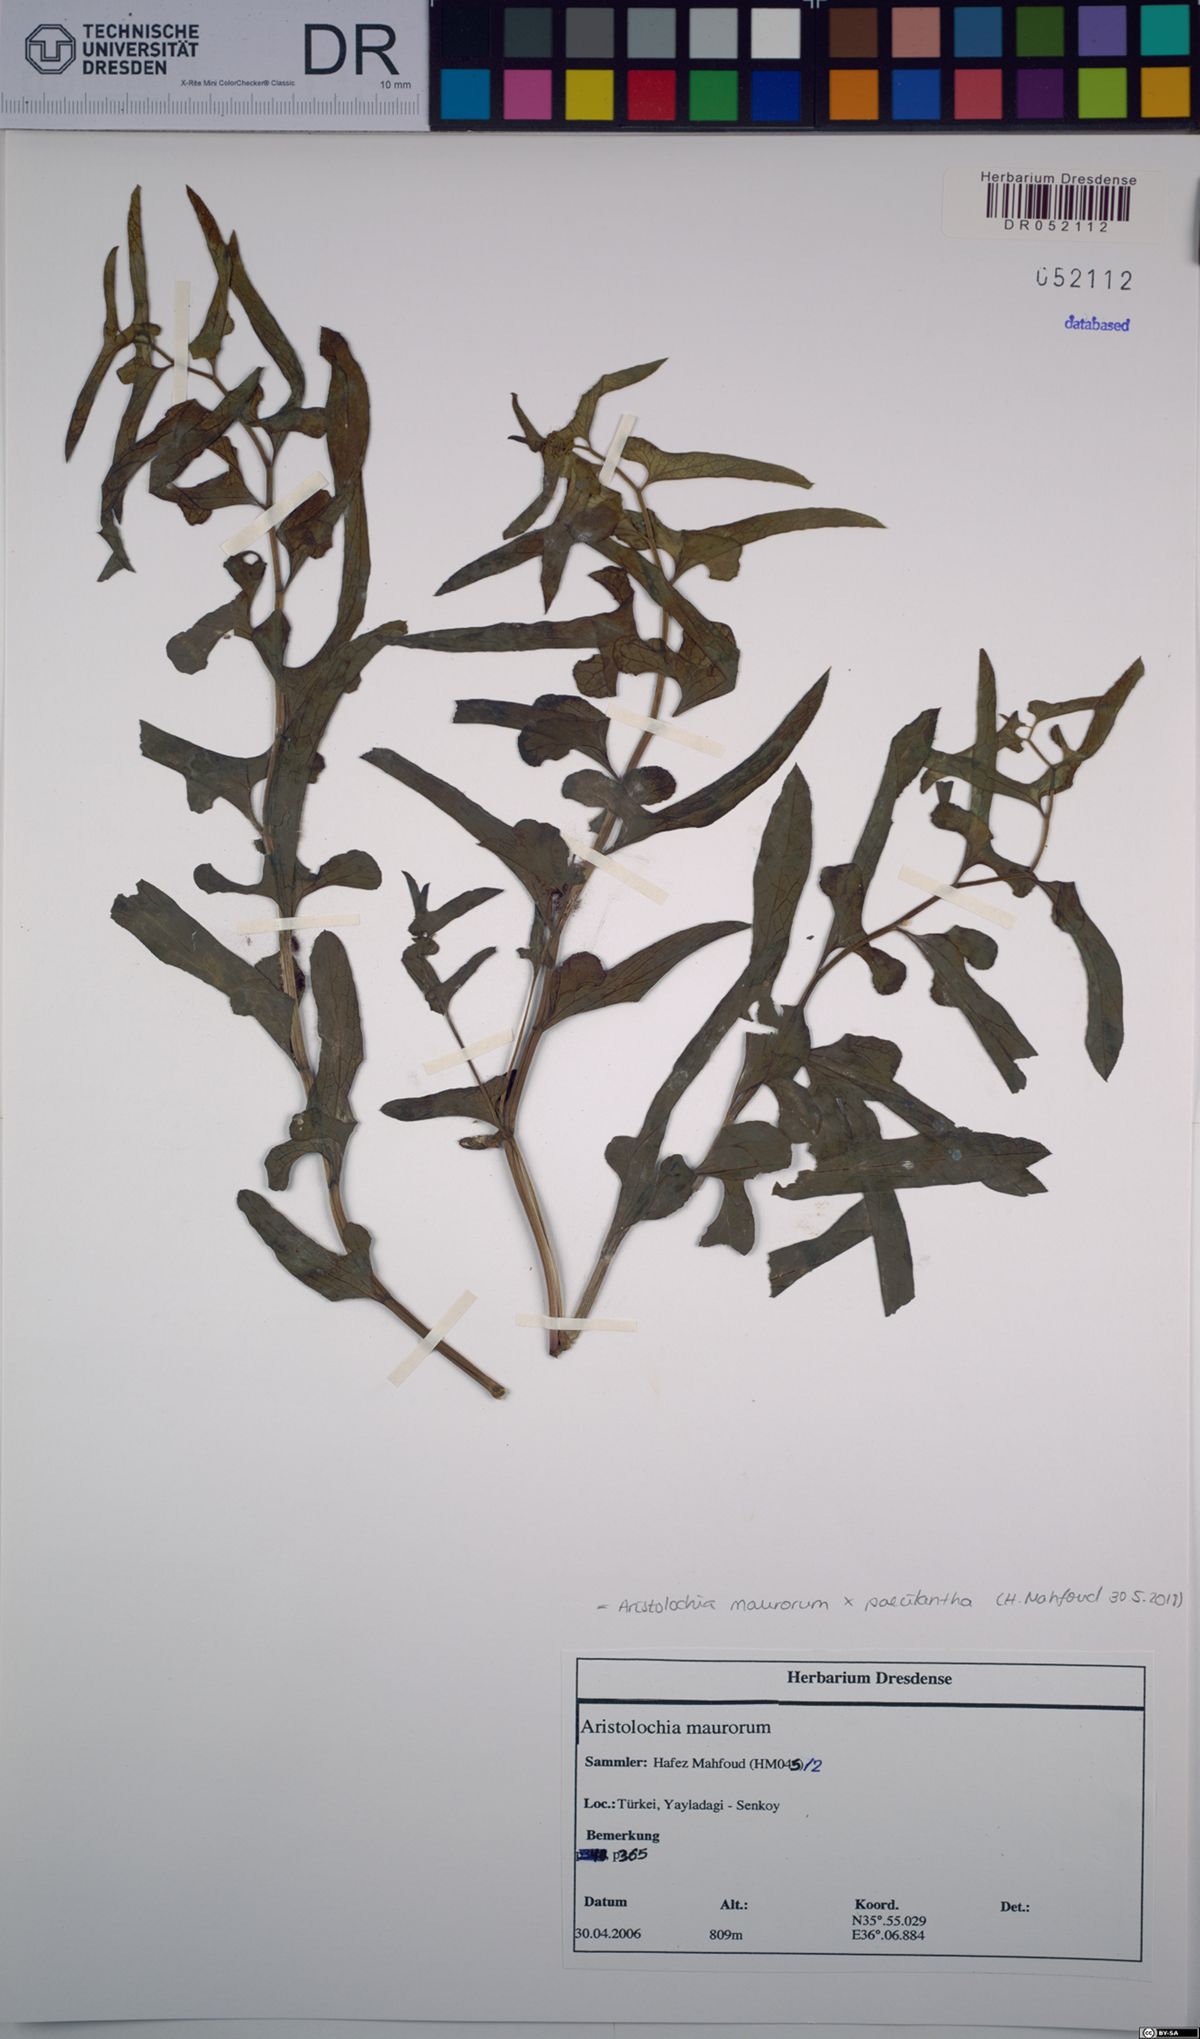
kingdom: Plantae
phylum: Tracheophyta
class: Magnoliopsida
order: Piperales
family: Aristolochiaceae
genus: Aristolochia
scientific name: Aristolochia maurorum
